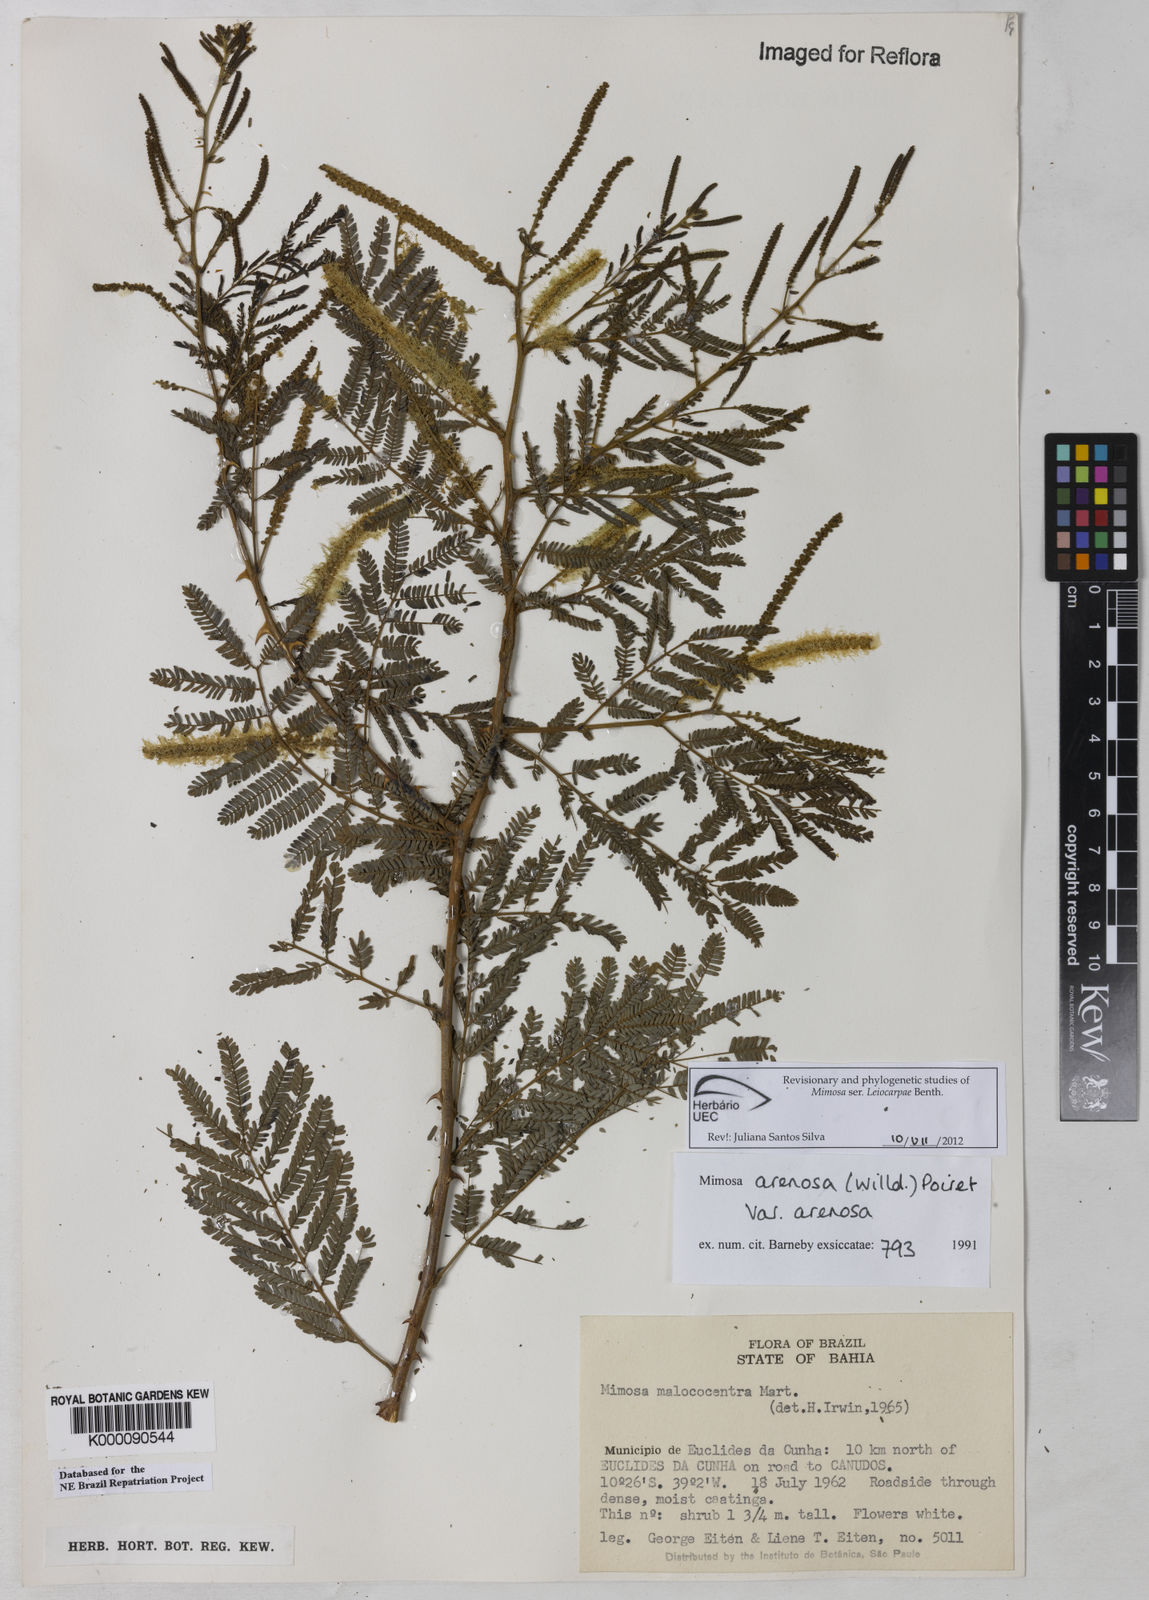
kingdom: Plantae
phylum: Tracheophyta
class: Magnoliopsida
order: Fabales
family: Fabaceae
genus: Mimosa
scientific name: Mimosa arenosa
